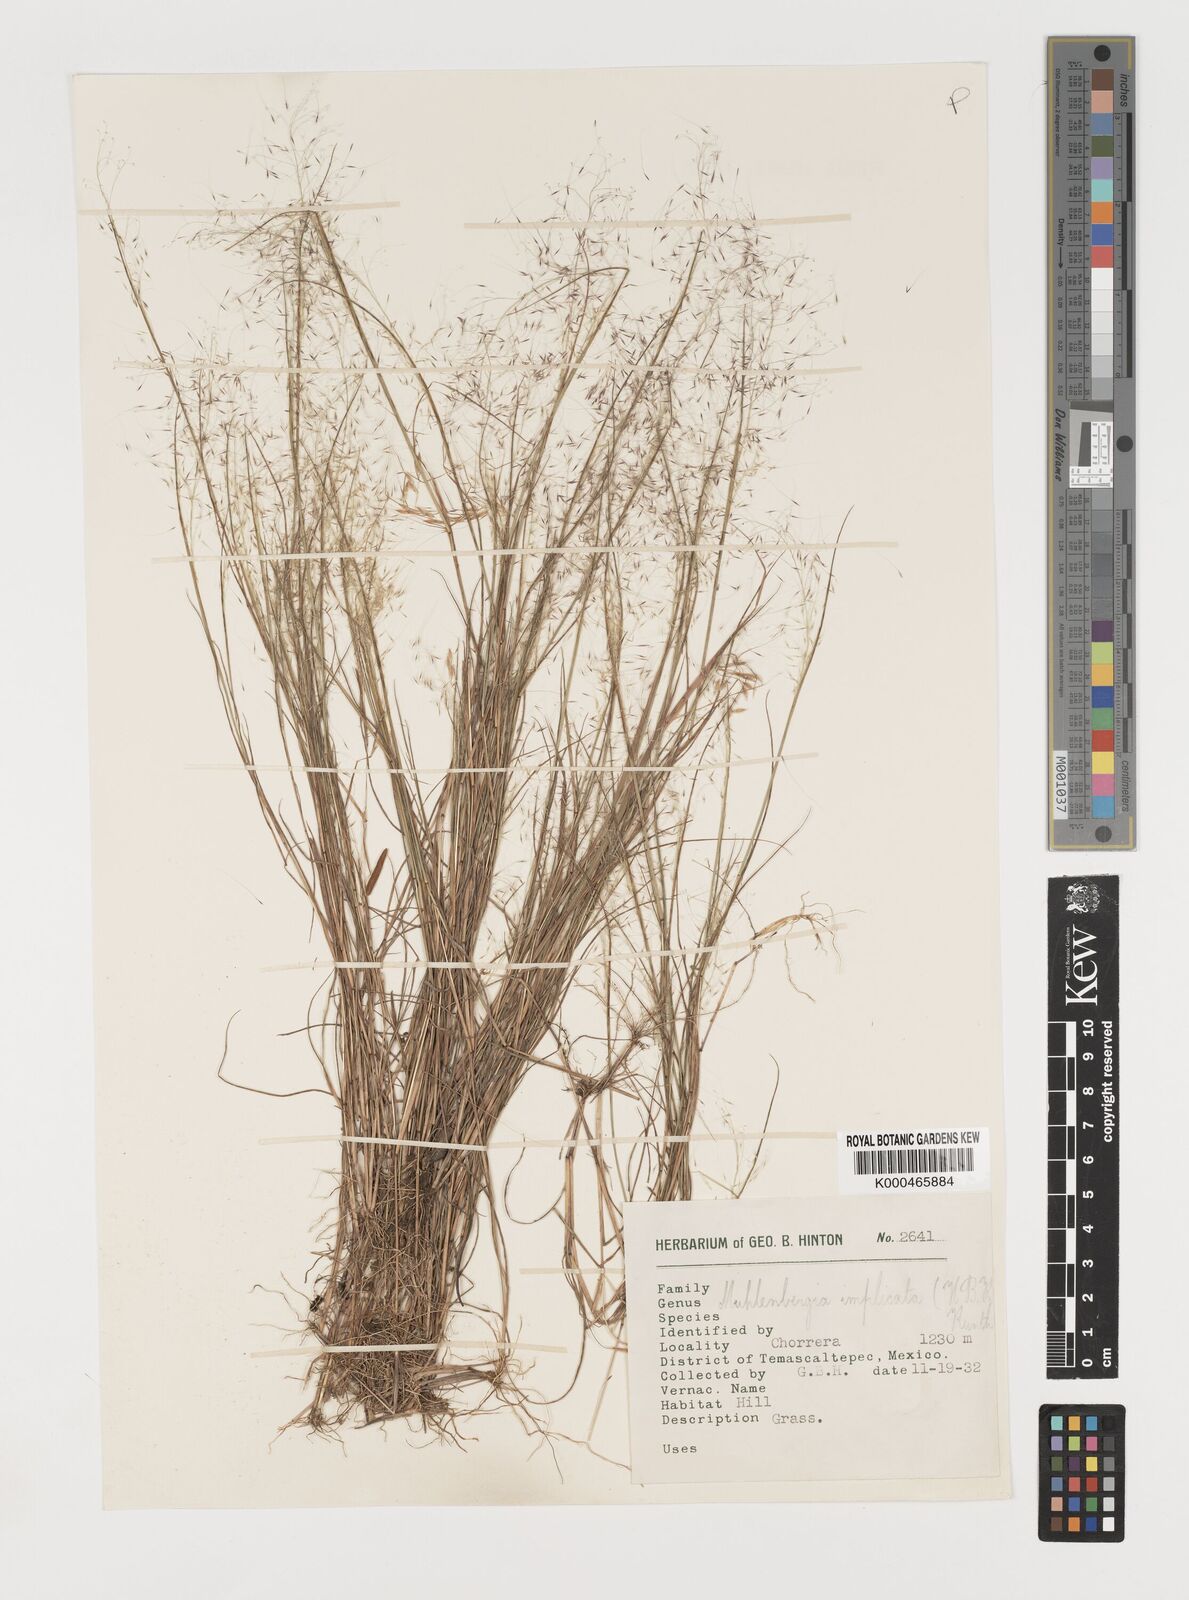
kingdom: Plantae
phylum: Tracheophyta
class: Liliopsida
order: Poales
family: Poaceae
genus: Muhlenbergia
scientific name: Muhlenbergia implicata
